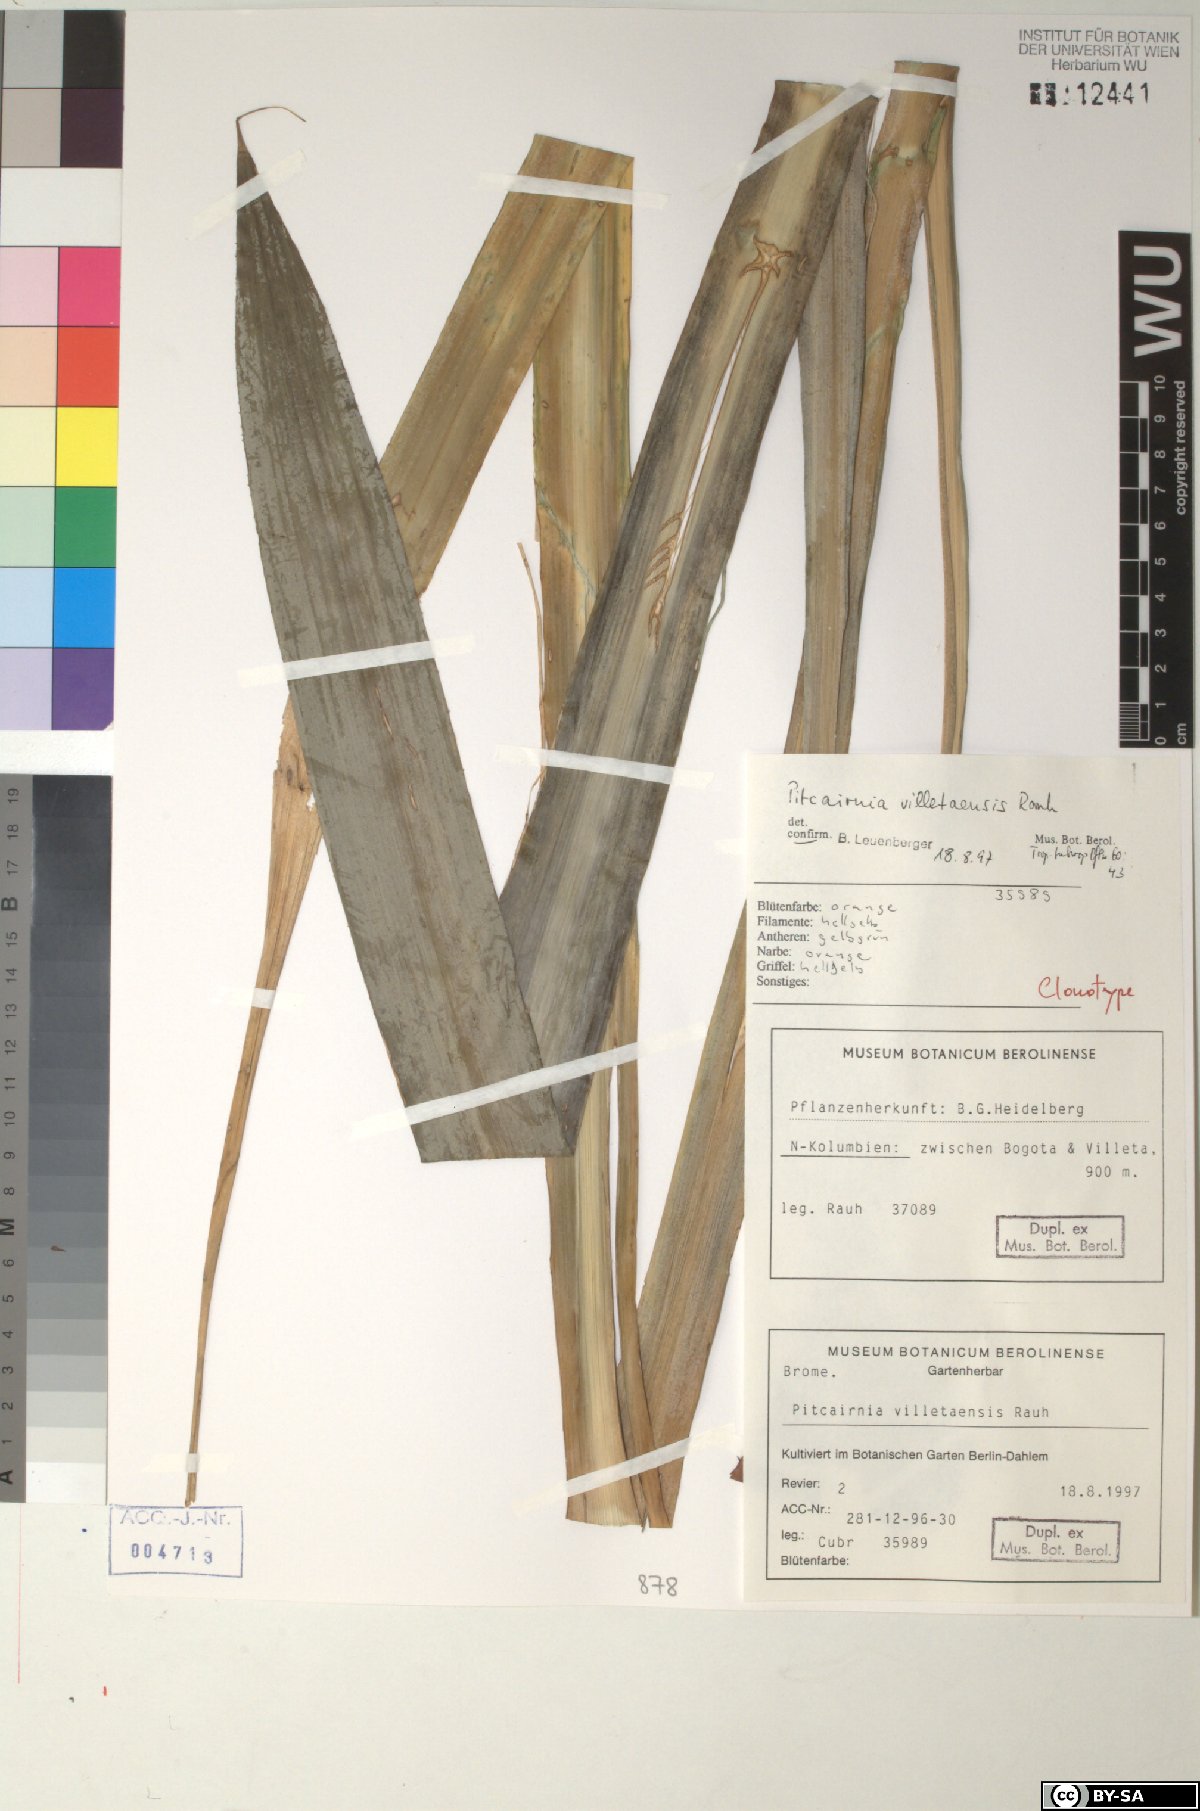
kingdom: Plantae
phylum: Tracheophyta
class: Liliopsida
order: Poales
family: Bromeliaceae
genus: Pitcairnia
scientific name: Pitcairnia villetaensis
